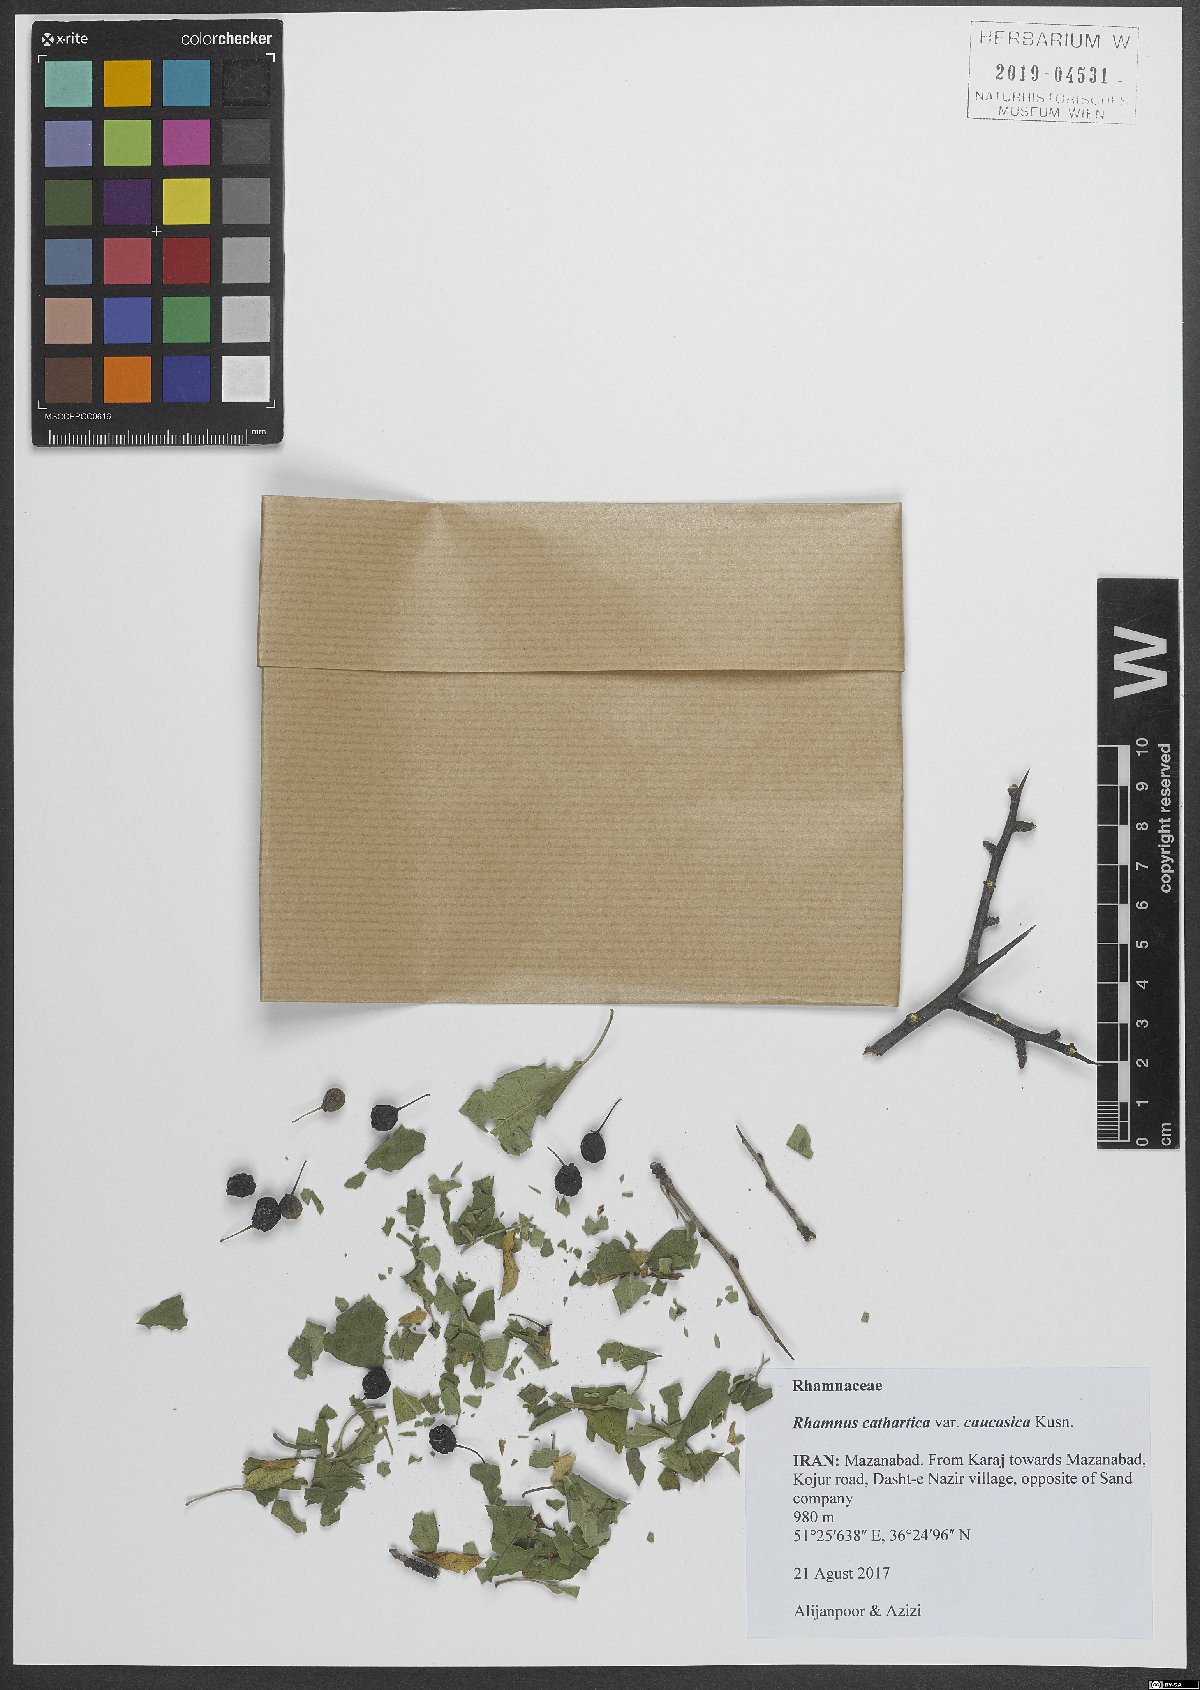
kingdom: Plantae
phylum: Tracheophyta
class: Magnoliopsida
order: Rosales
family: Rhamnaceae
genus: Rhamnus
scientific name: Rhamnus cathartica
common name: Common buckthorn
